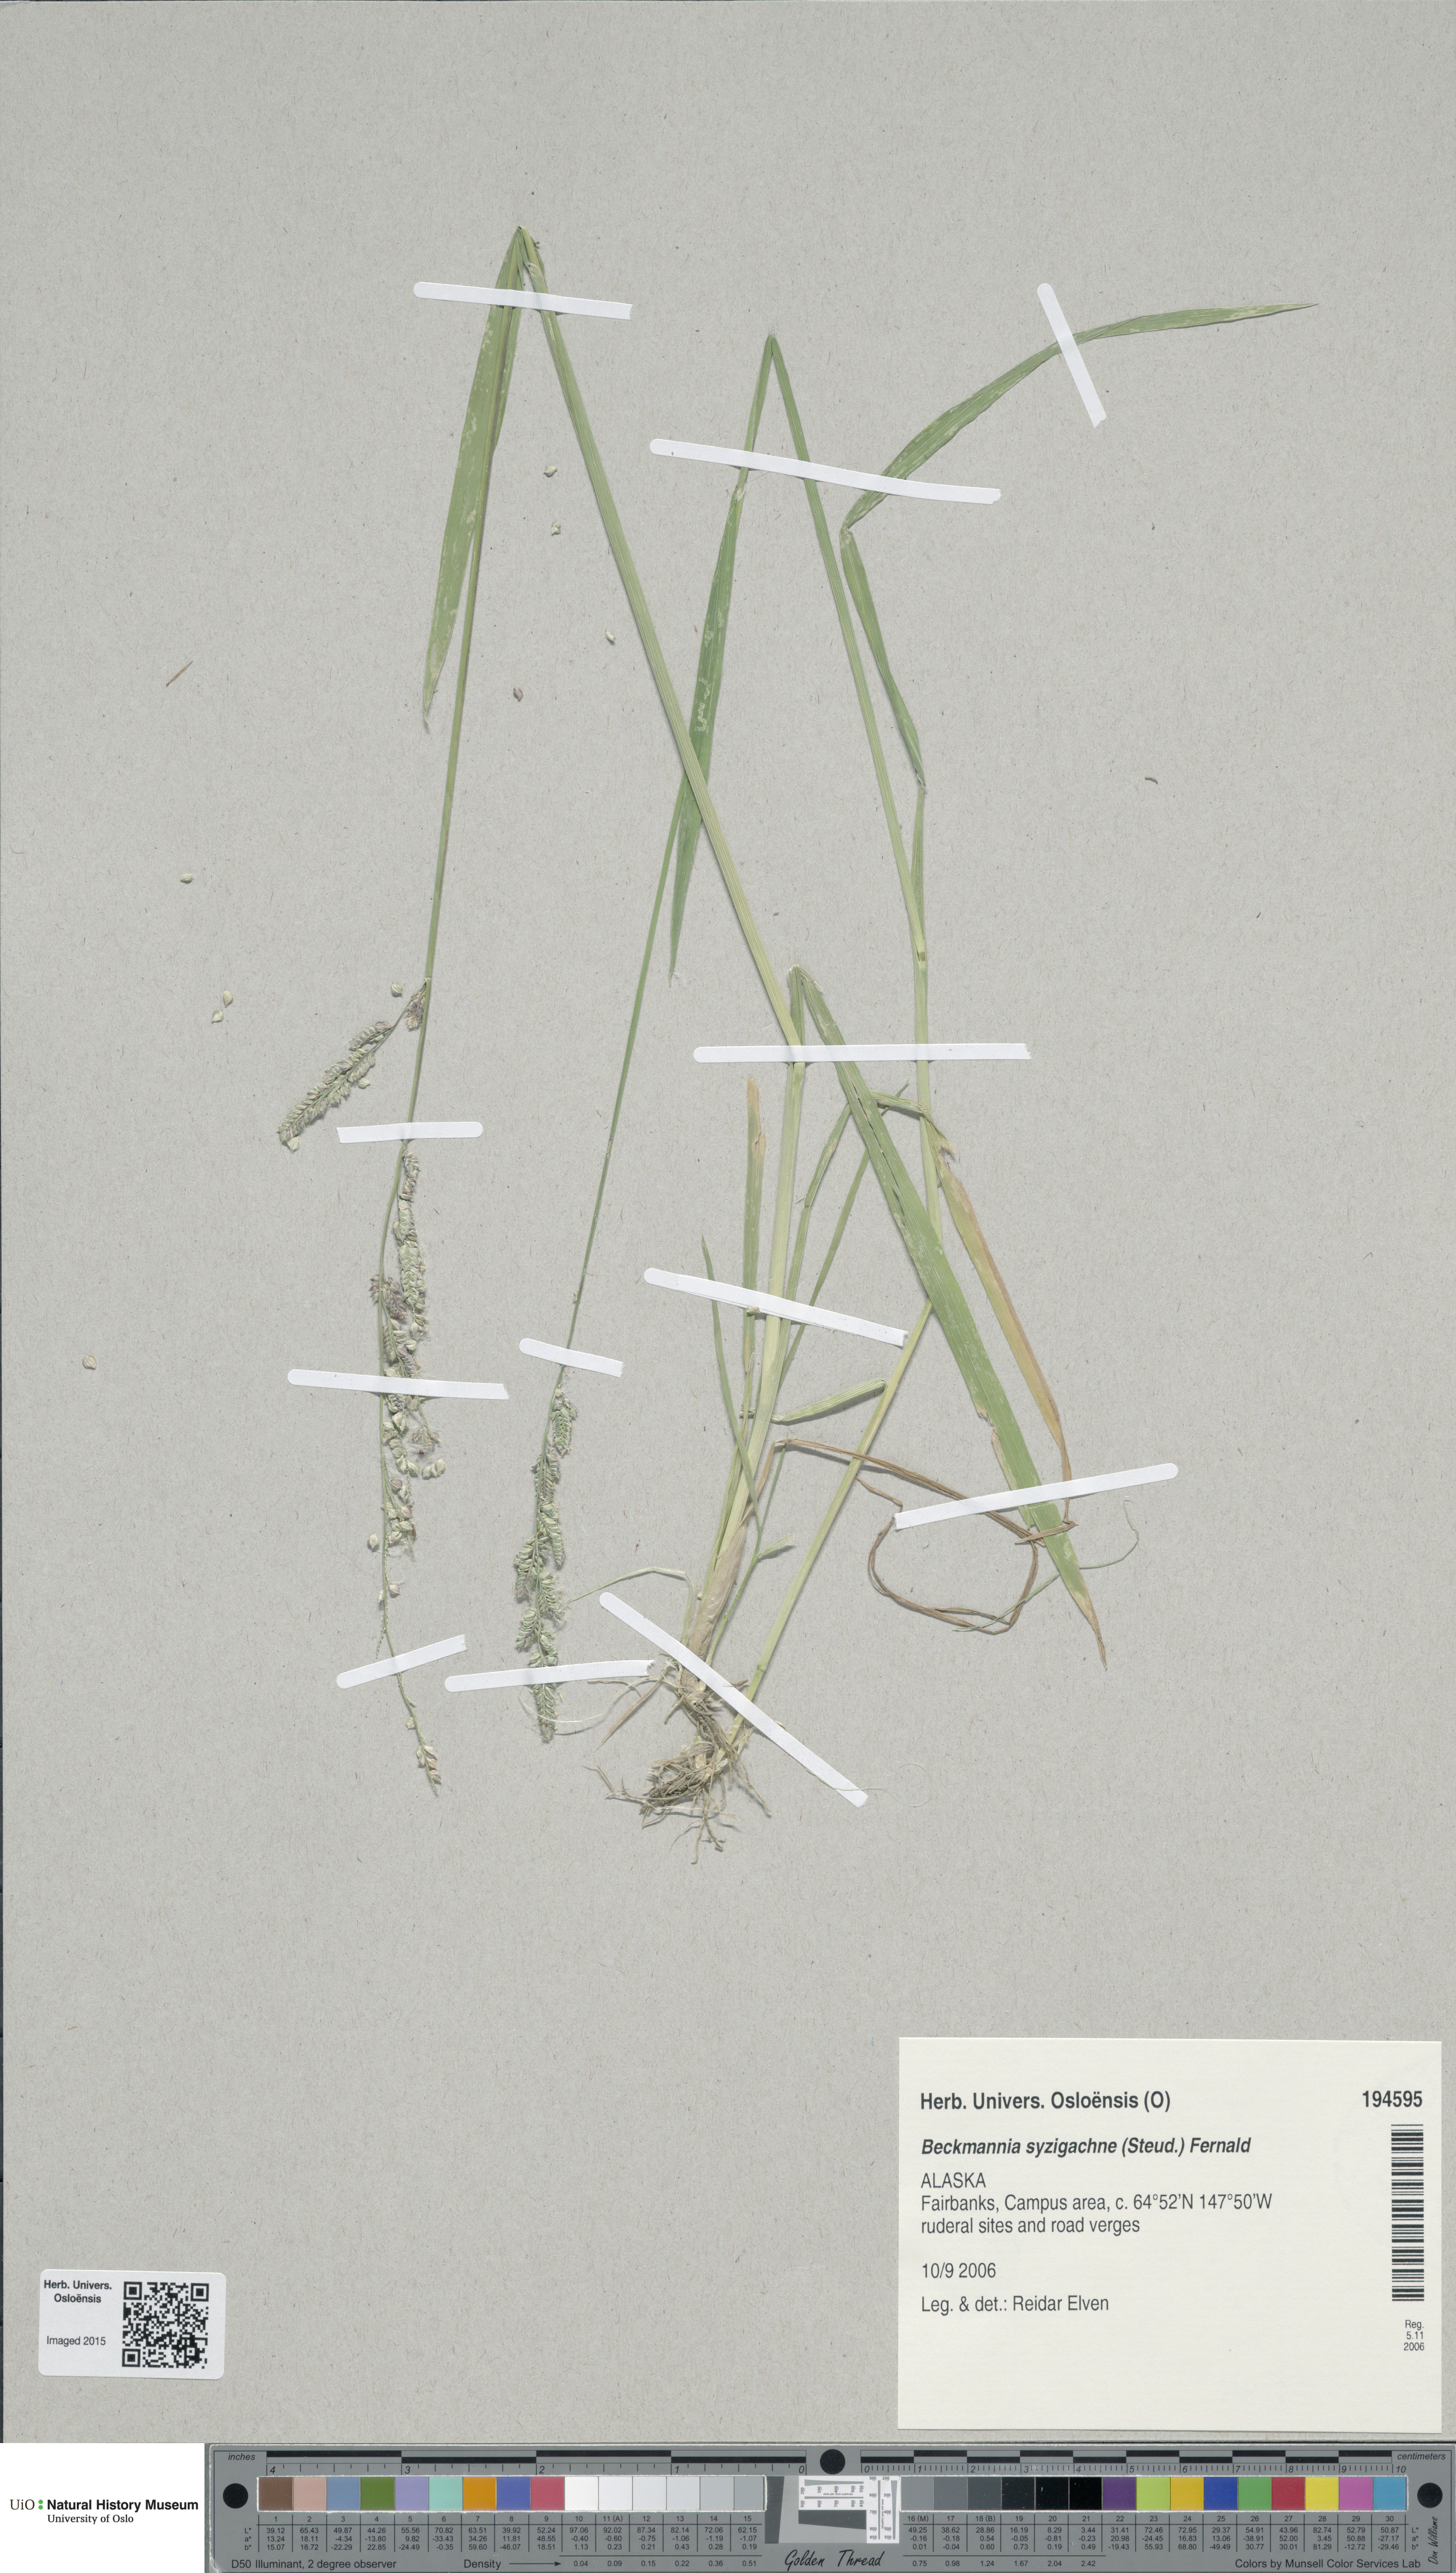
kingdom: Plantae
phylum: Tracheophyta
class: Liliopsida
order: Poales
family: Poaceae
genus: Beckmannia
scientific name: Beckmannia syzigachne
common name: American slough-grass
